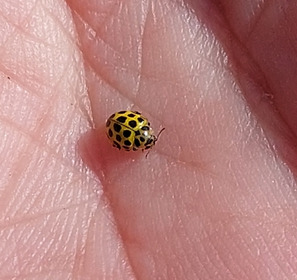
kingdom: Animalia
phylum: Arthropoda
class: Insecta
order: Coleoptera
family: Coccinellidae
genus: Psyllobora
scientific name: Psyllobora vigintiduopunctata
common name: Toogtyveplettet mariehøne
